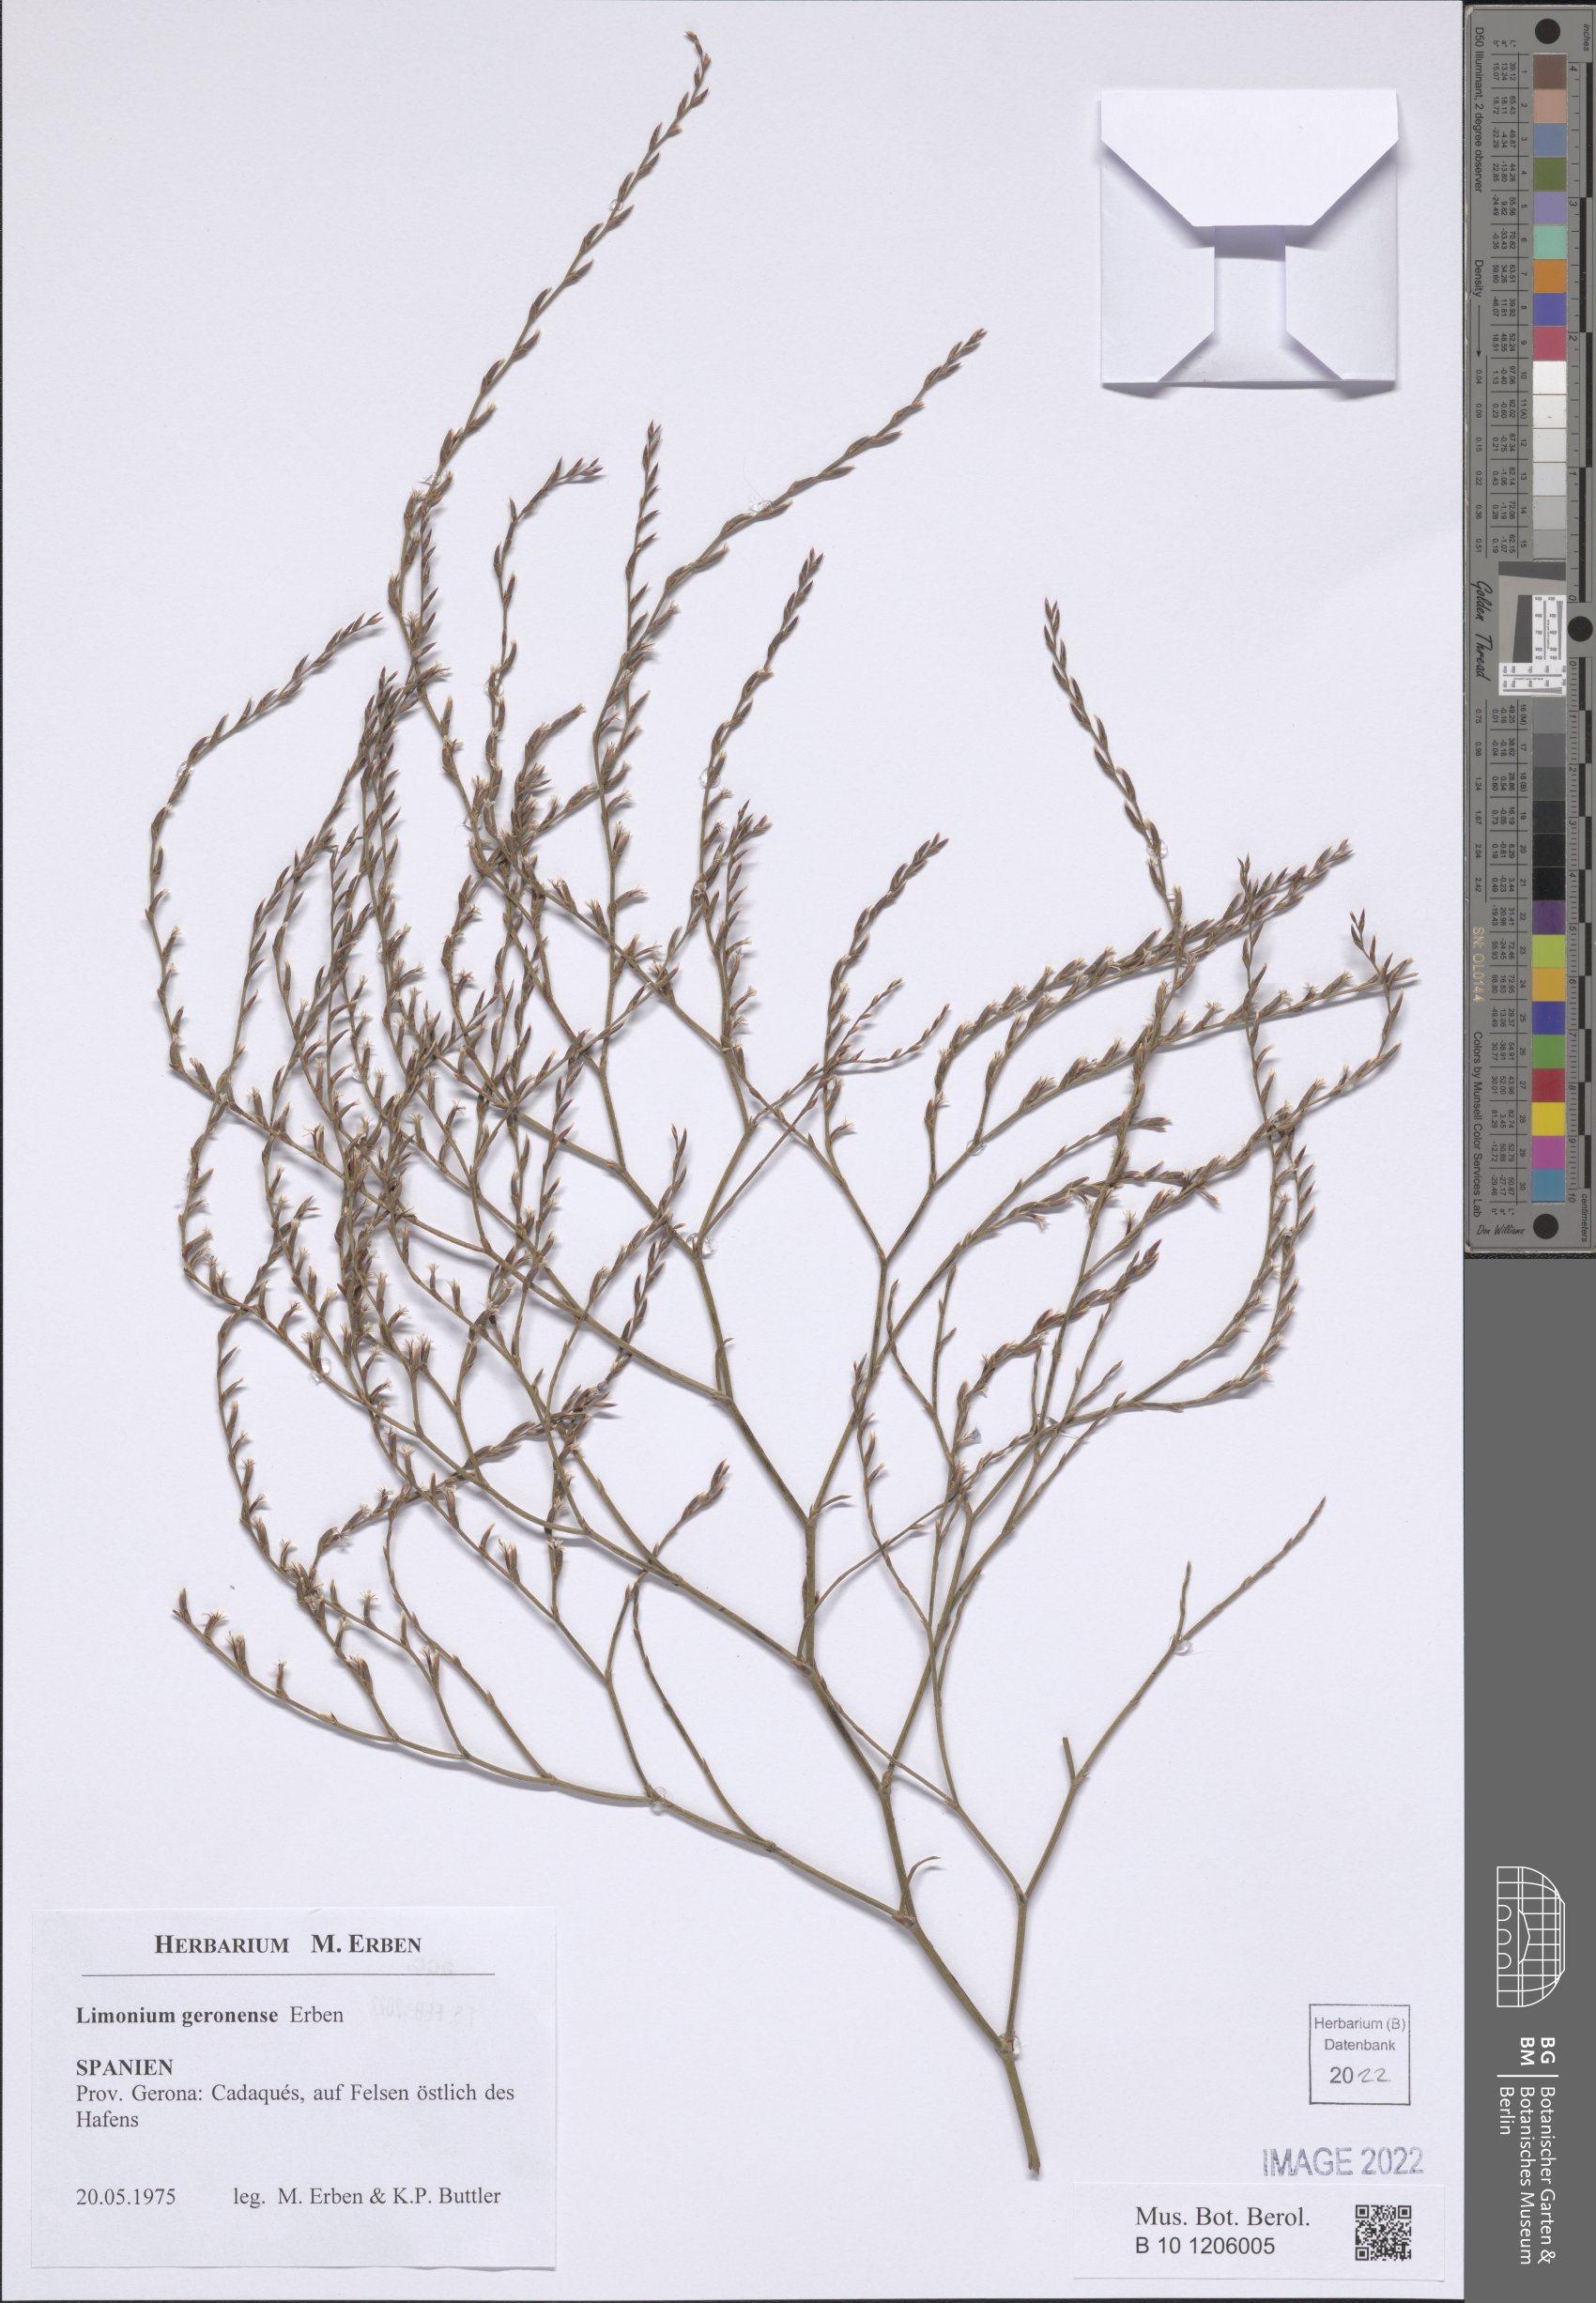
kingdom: Plantae
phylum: Tracheophyta
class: Magnoliopsida
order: Caryophyllales
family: Plumbaginaceae
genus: Limonium
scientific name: Limonium geronense
